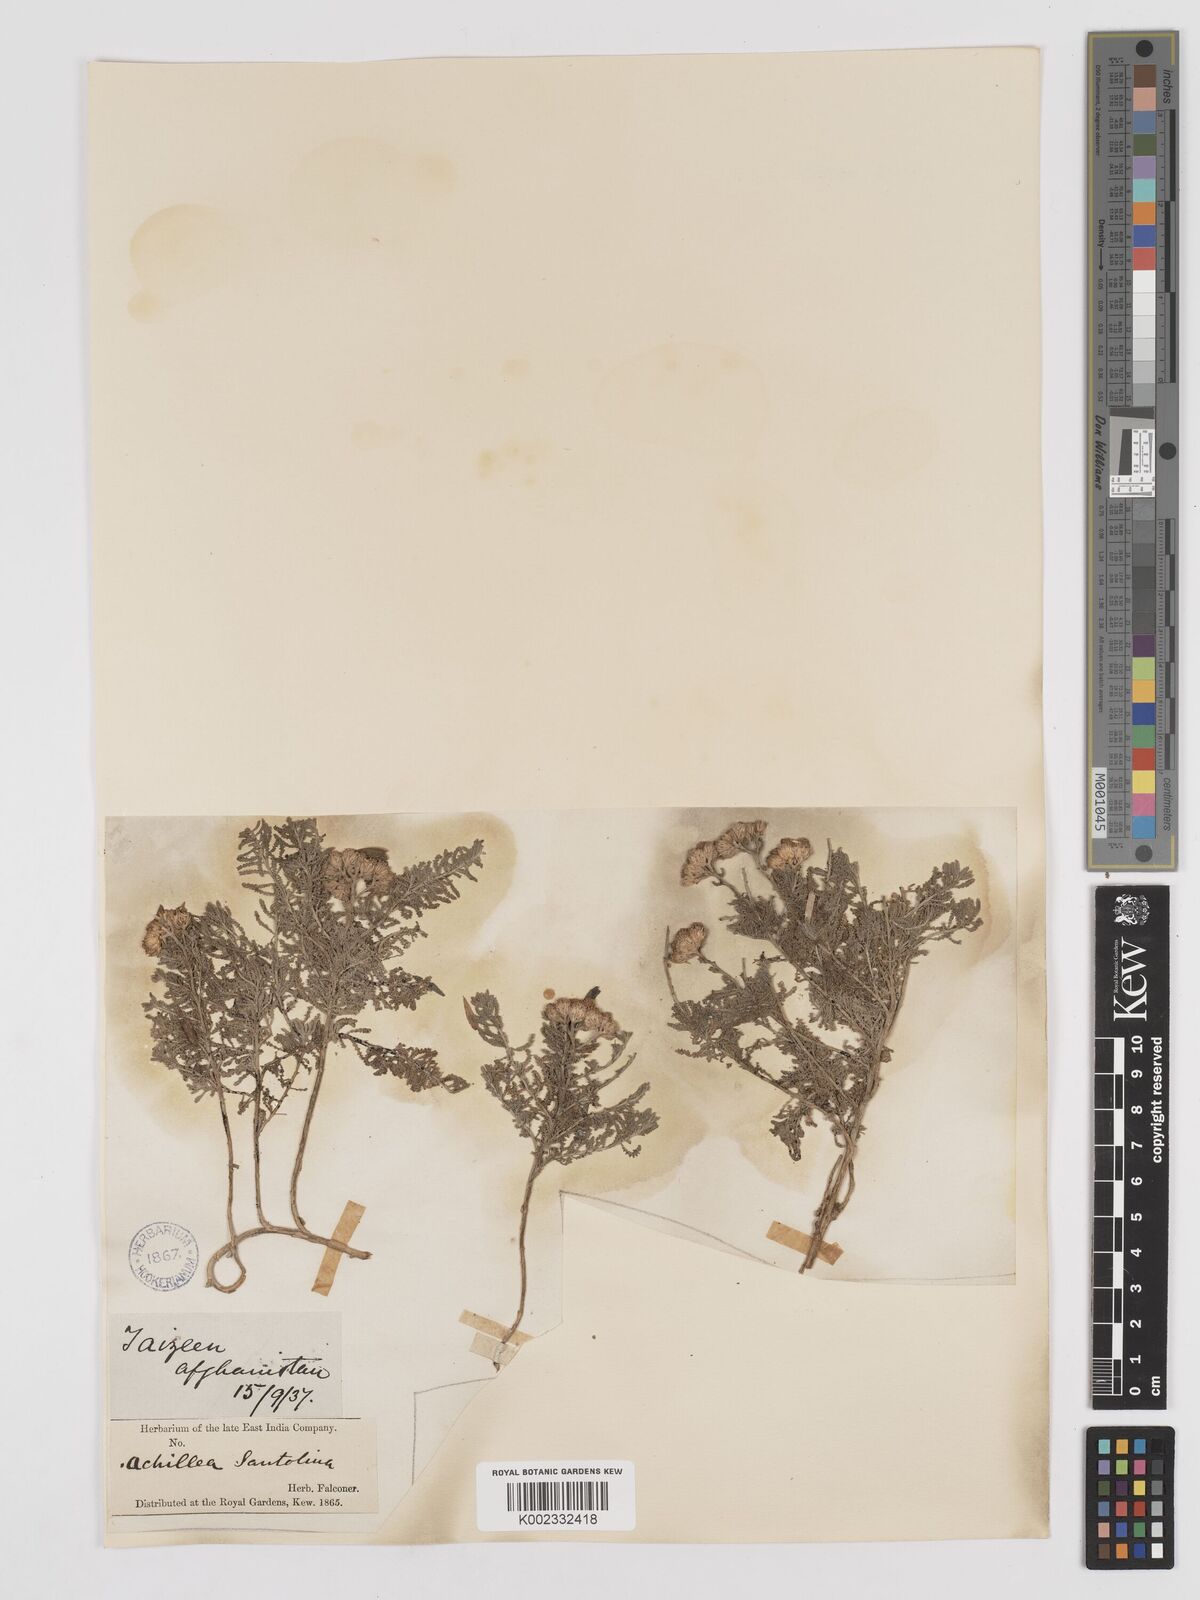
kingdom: Plantae
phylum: Tracheophyta
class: Magnoliopsida
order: Asterales
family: Asteraceae
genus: Achillea
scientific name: Achillea tenuifolia
